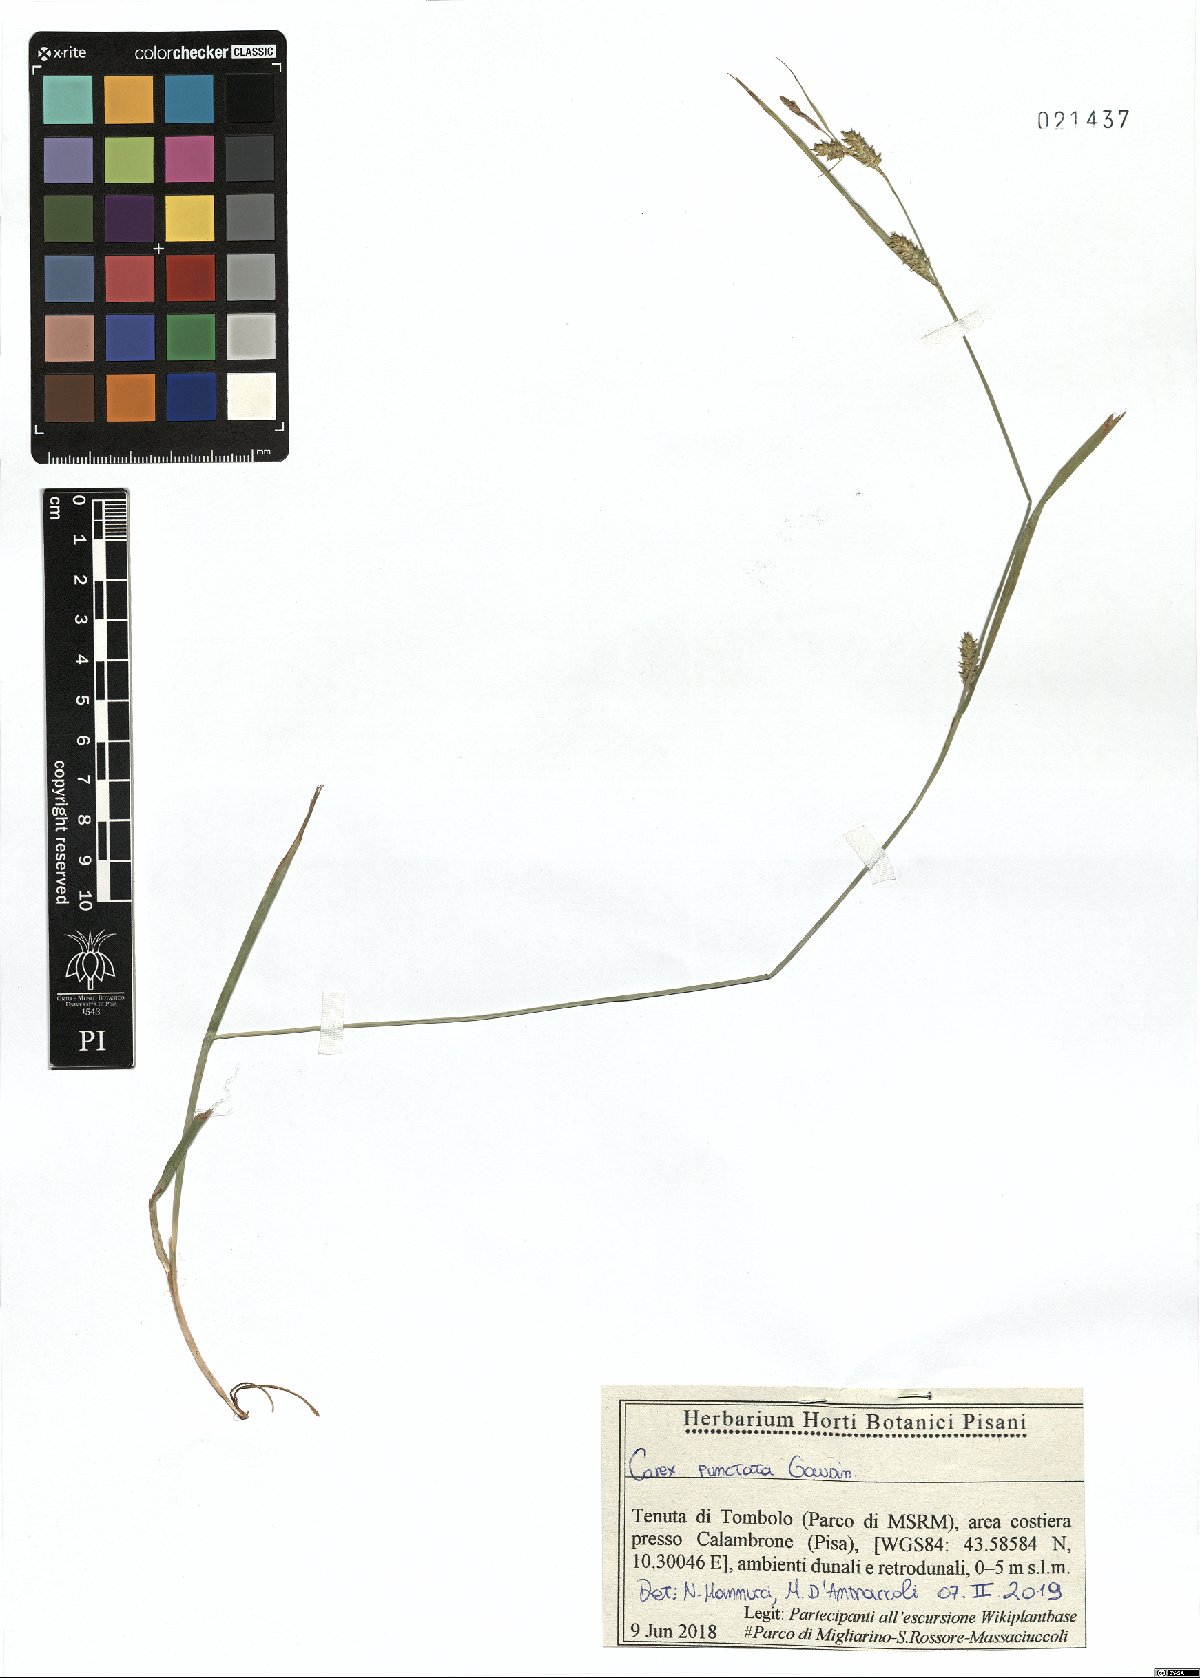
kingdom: Plantae
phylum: Tracheophyta
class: Liliopsida
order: Poales
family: Cyperaceae
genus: Carex
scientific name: Carex punctata
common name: Dotted sedge
